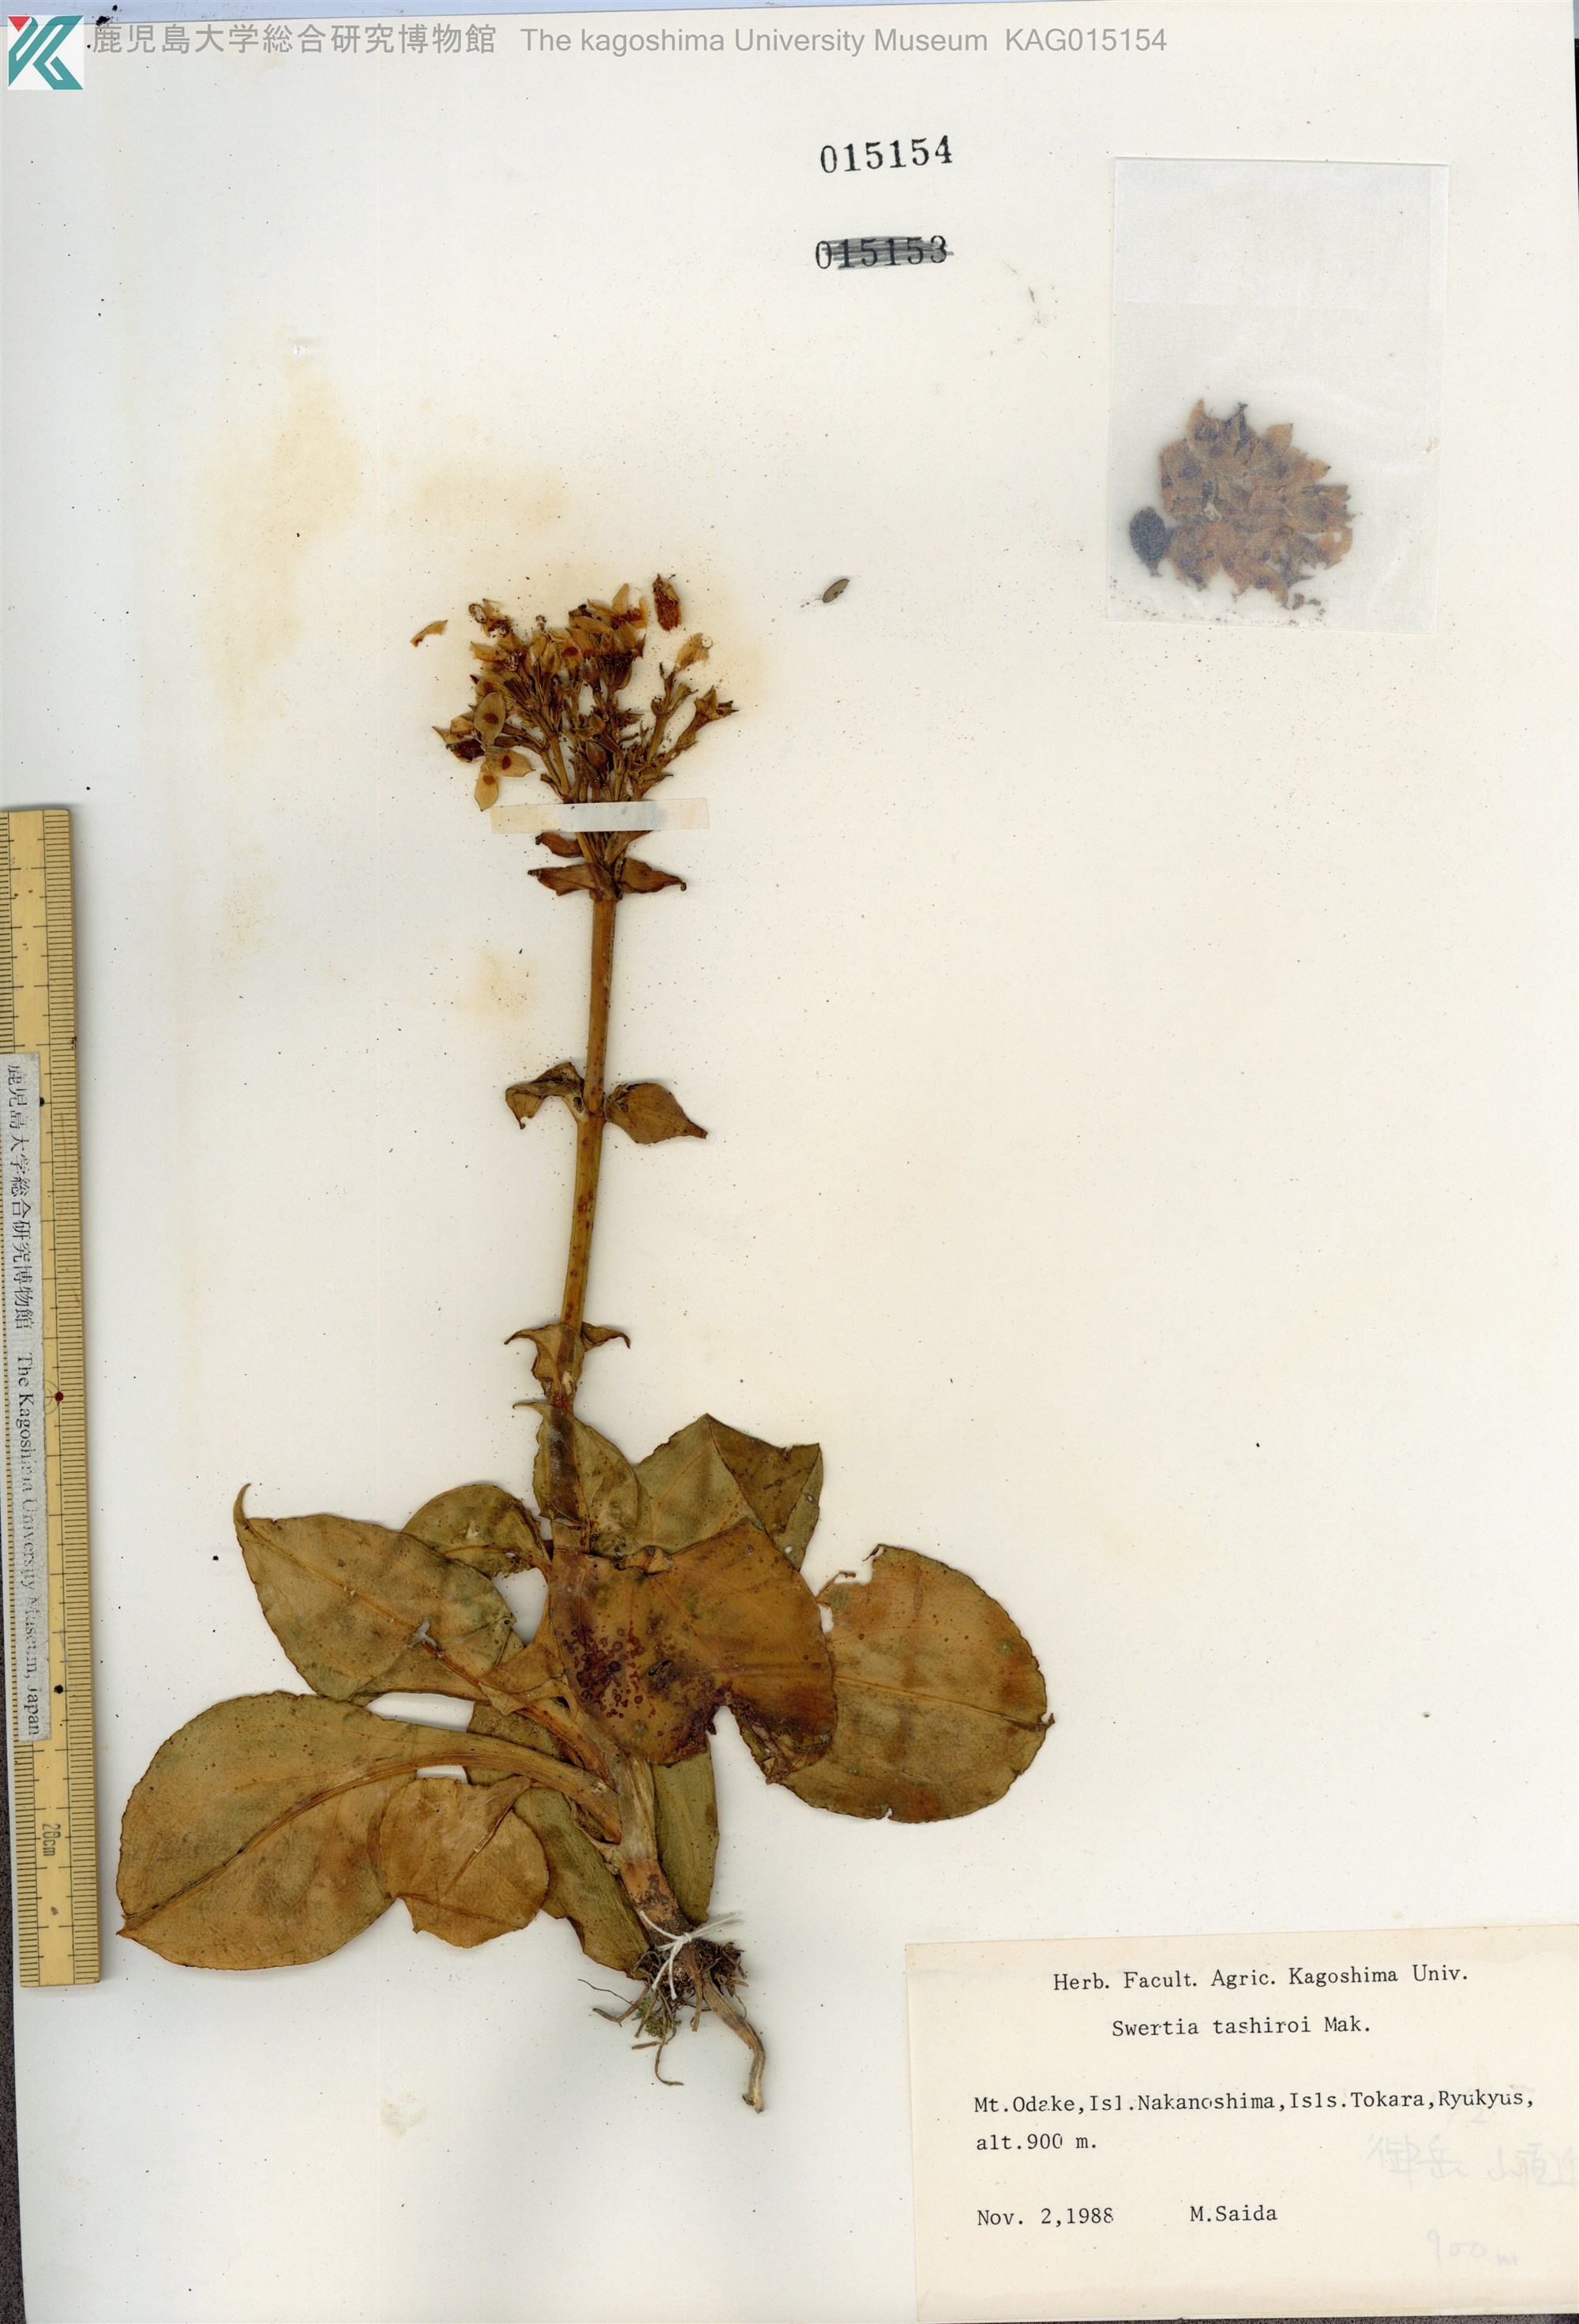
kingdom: Plantae
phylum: Tracheophyta
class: Magnoliopsida
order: Gentianales
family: Gentianaceae
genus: Swertia
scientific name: Swertia tashiroi
